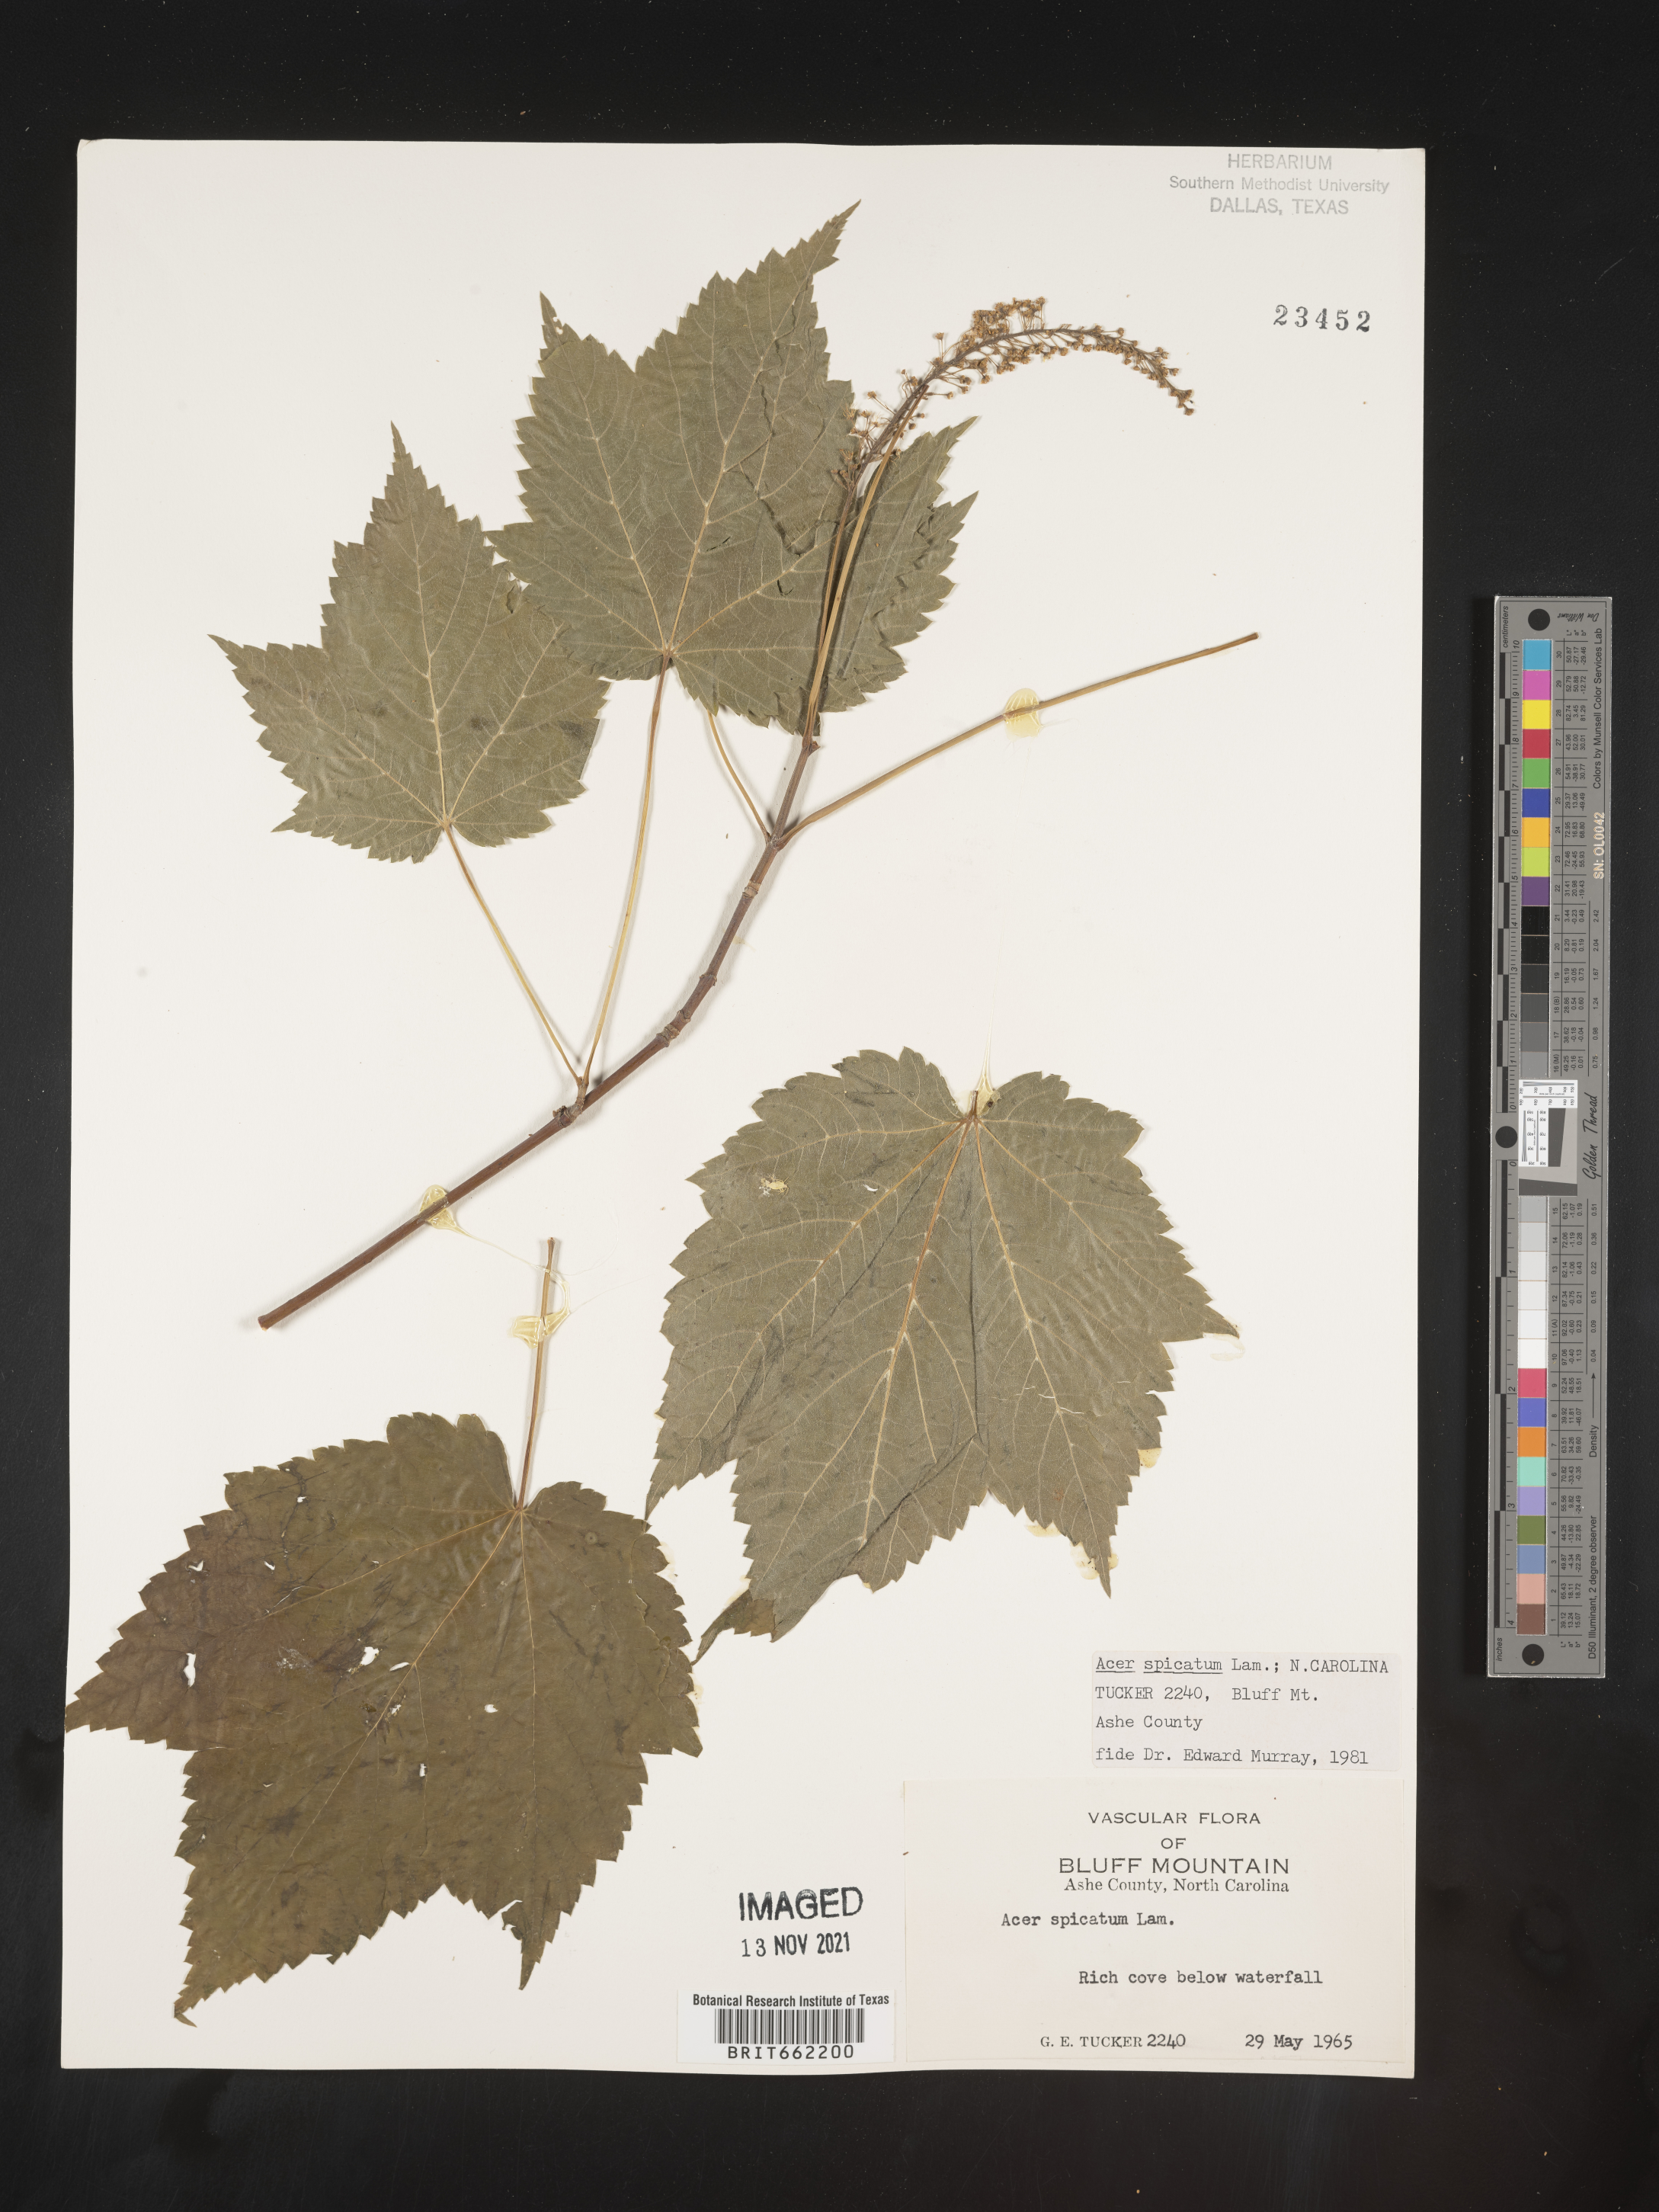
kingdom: Plantae
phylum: Tracheophyta
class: Magnoliopsida
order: Sapindales
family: Sapindaceae
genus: Acer
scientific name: Acer spicatum
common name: Mountain maple
